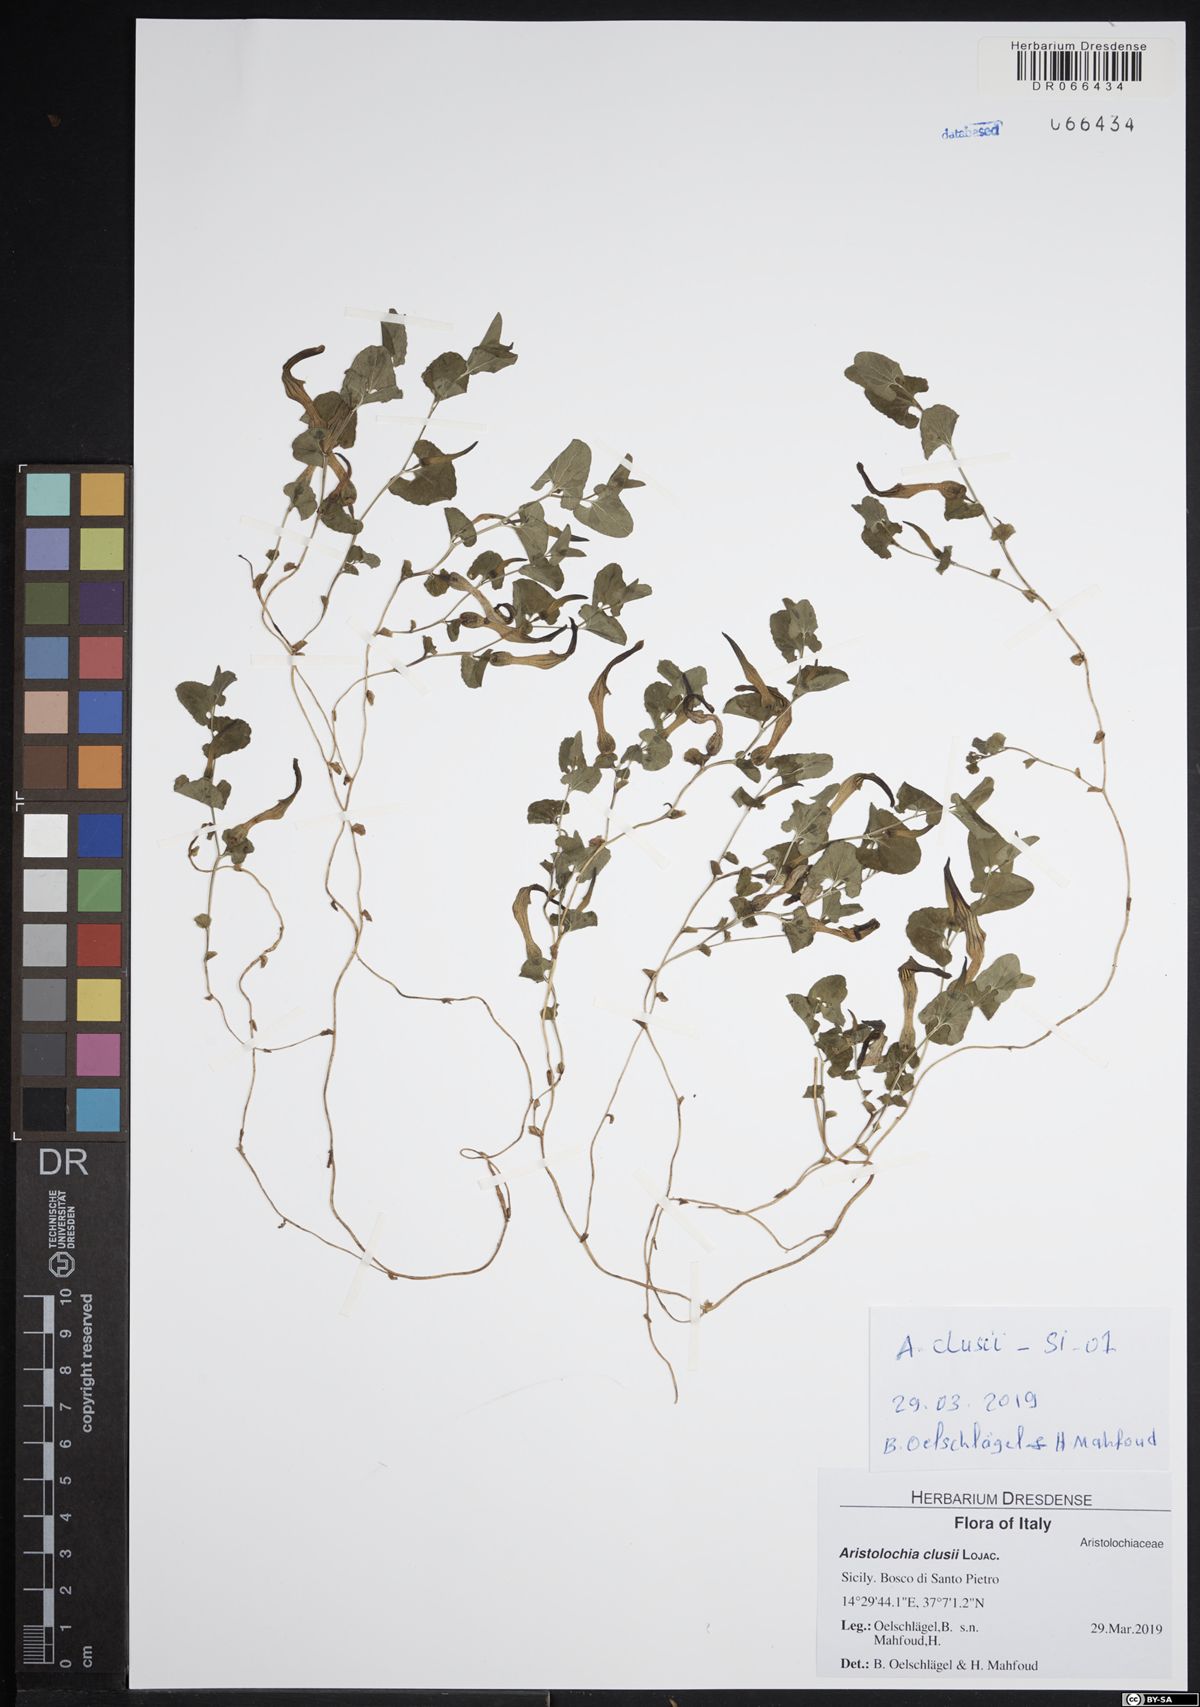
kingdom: Plantae
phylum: Tracheophyta
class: Magnoliopsida
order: Piperales
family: Aristolochiaceae
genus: Aristolochia
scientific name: Aristolochia clusii
